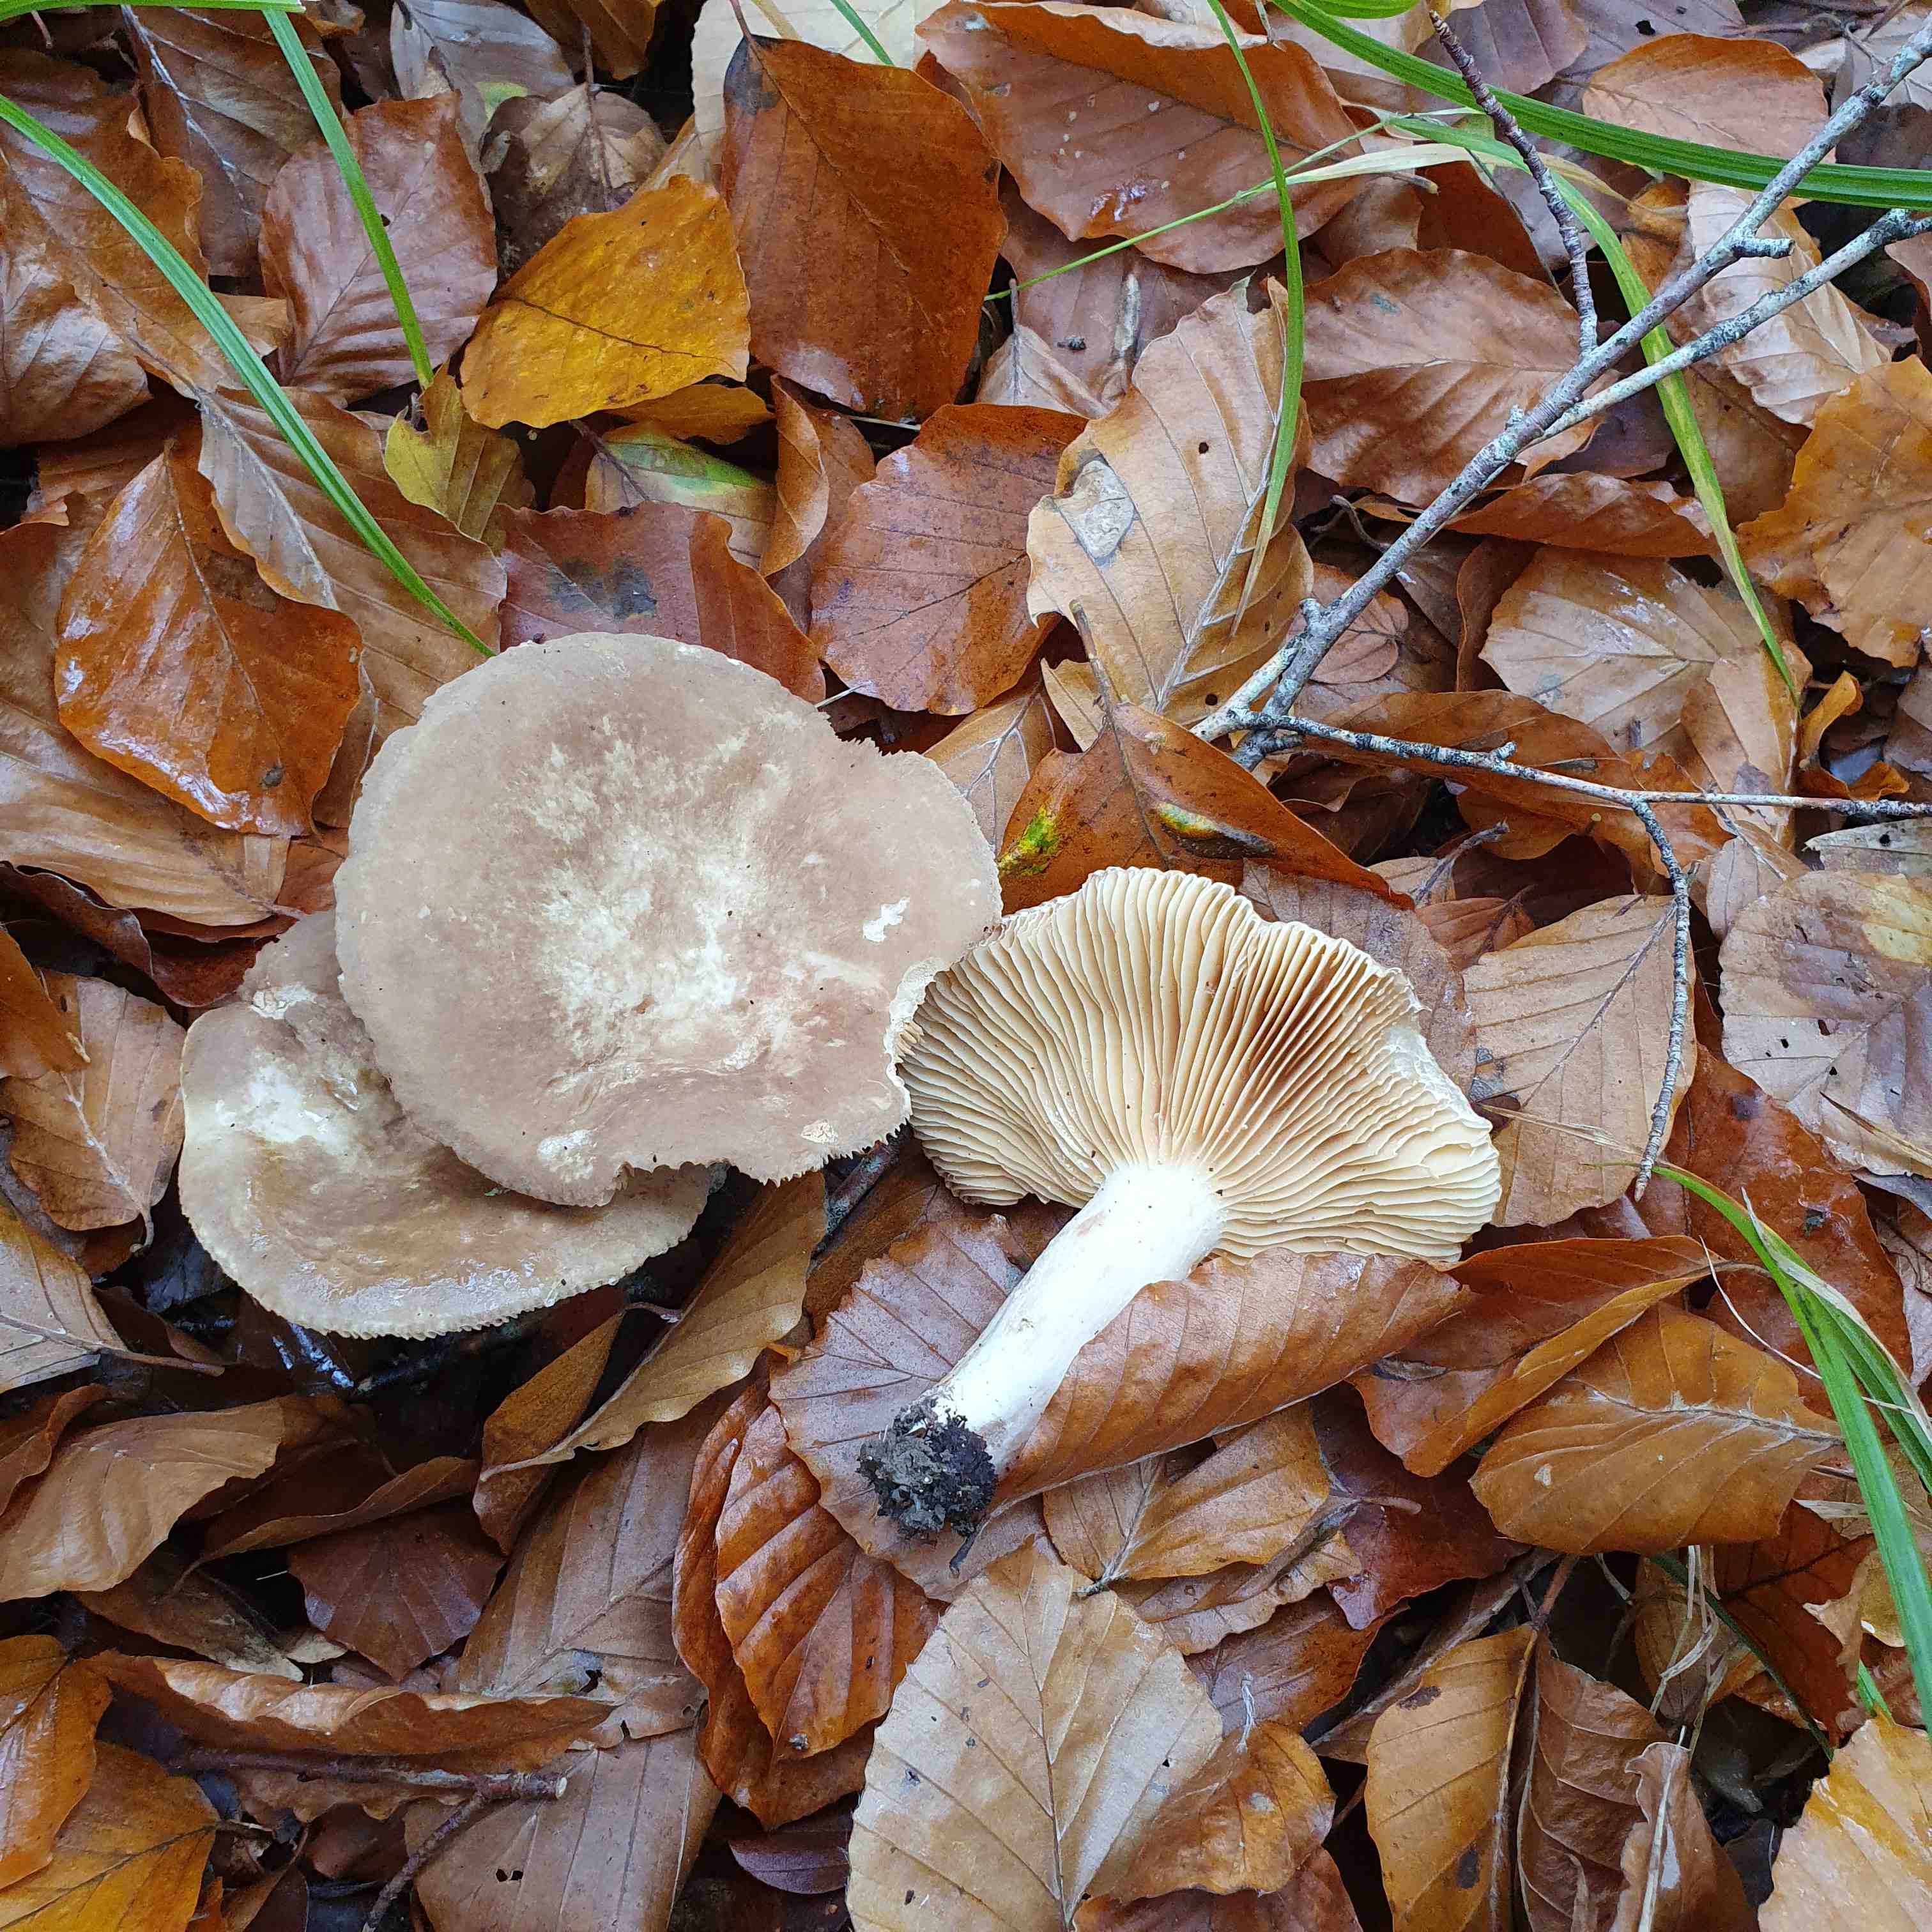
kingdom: Fungi
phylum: Basidiomycota
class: Agaricomycetes
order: Russulales
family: Russulaceae
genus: Lactarius
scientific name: Lactarius pterosporus
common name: vingesporet mælkehat
